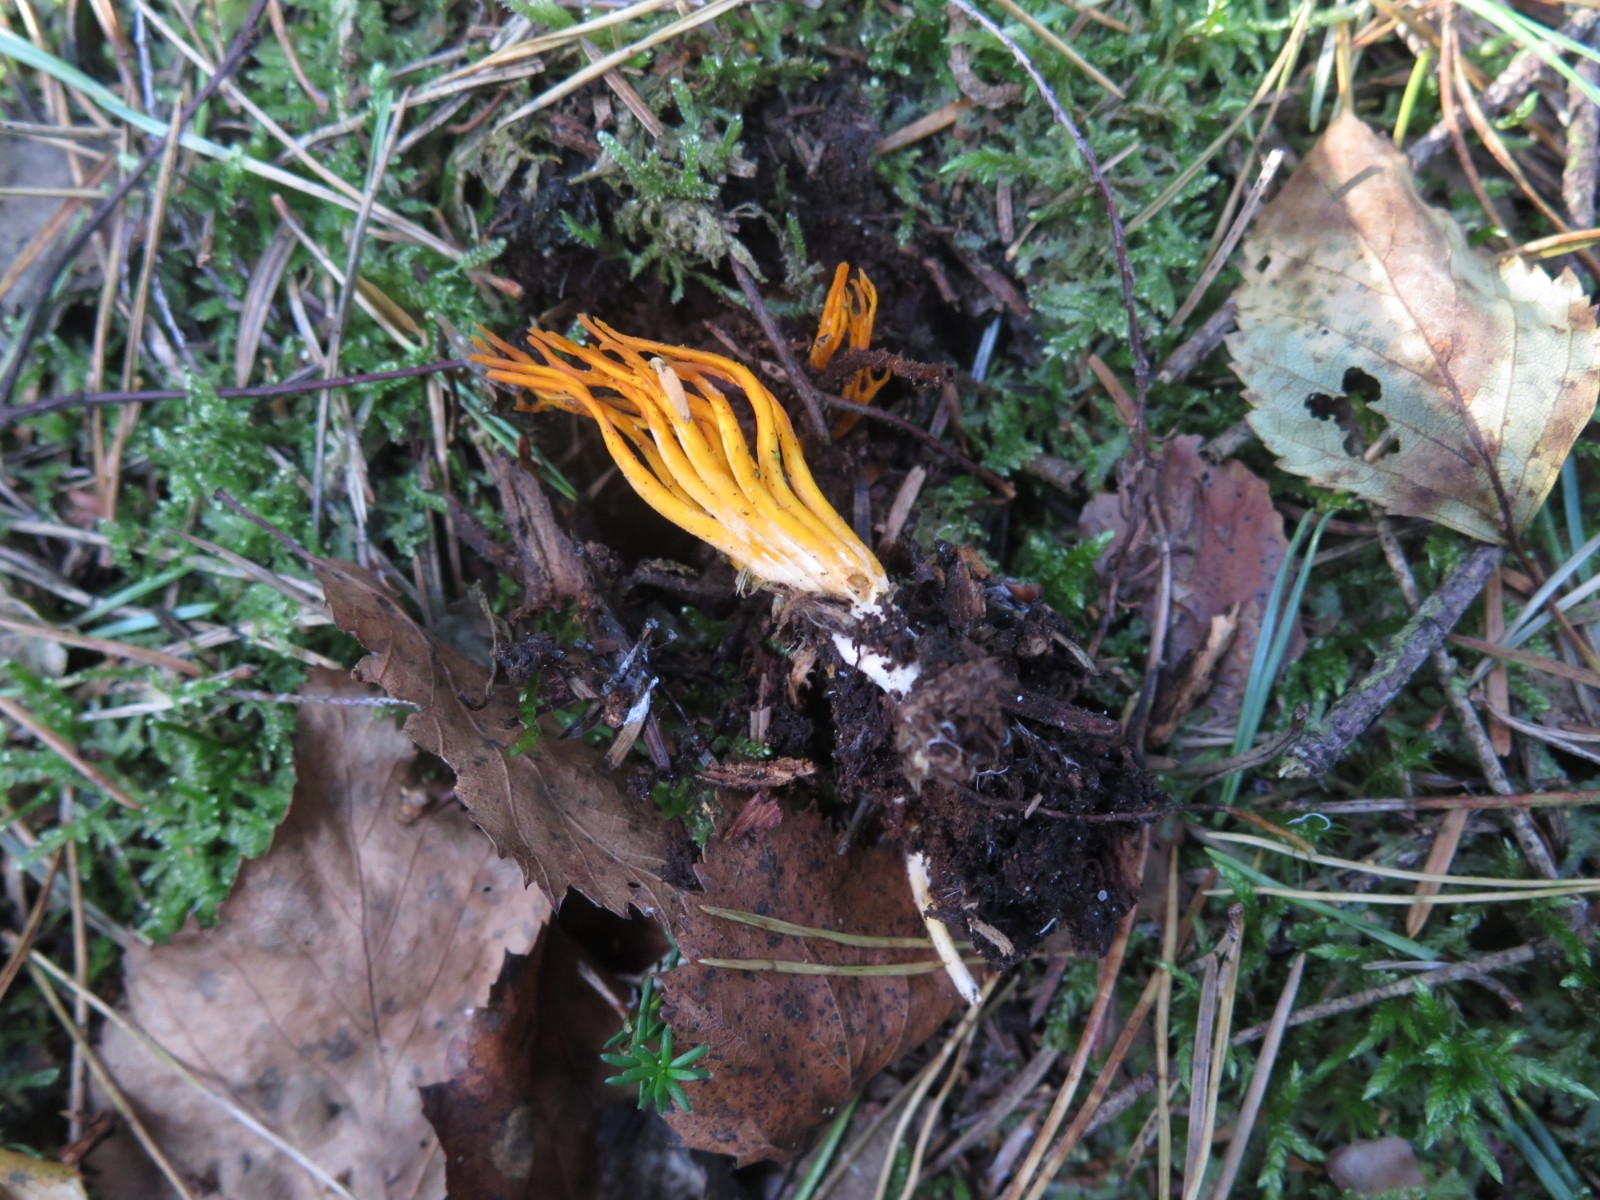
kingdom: Fungi
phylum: Basidiomycota
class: Dacrymycetes
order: Dacrymycetales
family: Dacrymycetaceae
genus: Calocera
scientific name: Calocera viscosa
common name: almindelig guldgaffel
